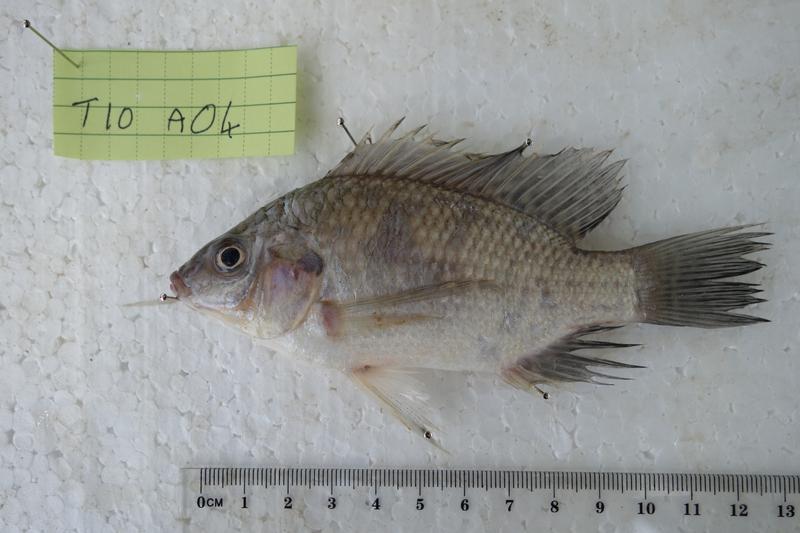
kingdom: Animalia
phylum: Chordata
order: Perciformes
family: Cichlidae
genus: Oreochromis
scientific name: Oreochromis rukwaensis
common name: Lake rukwa tilapia
